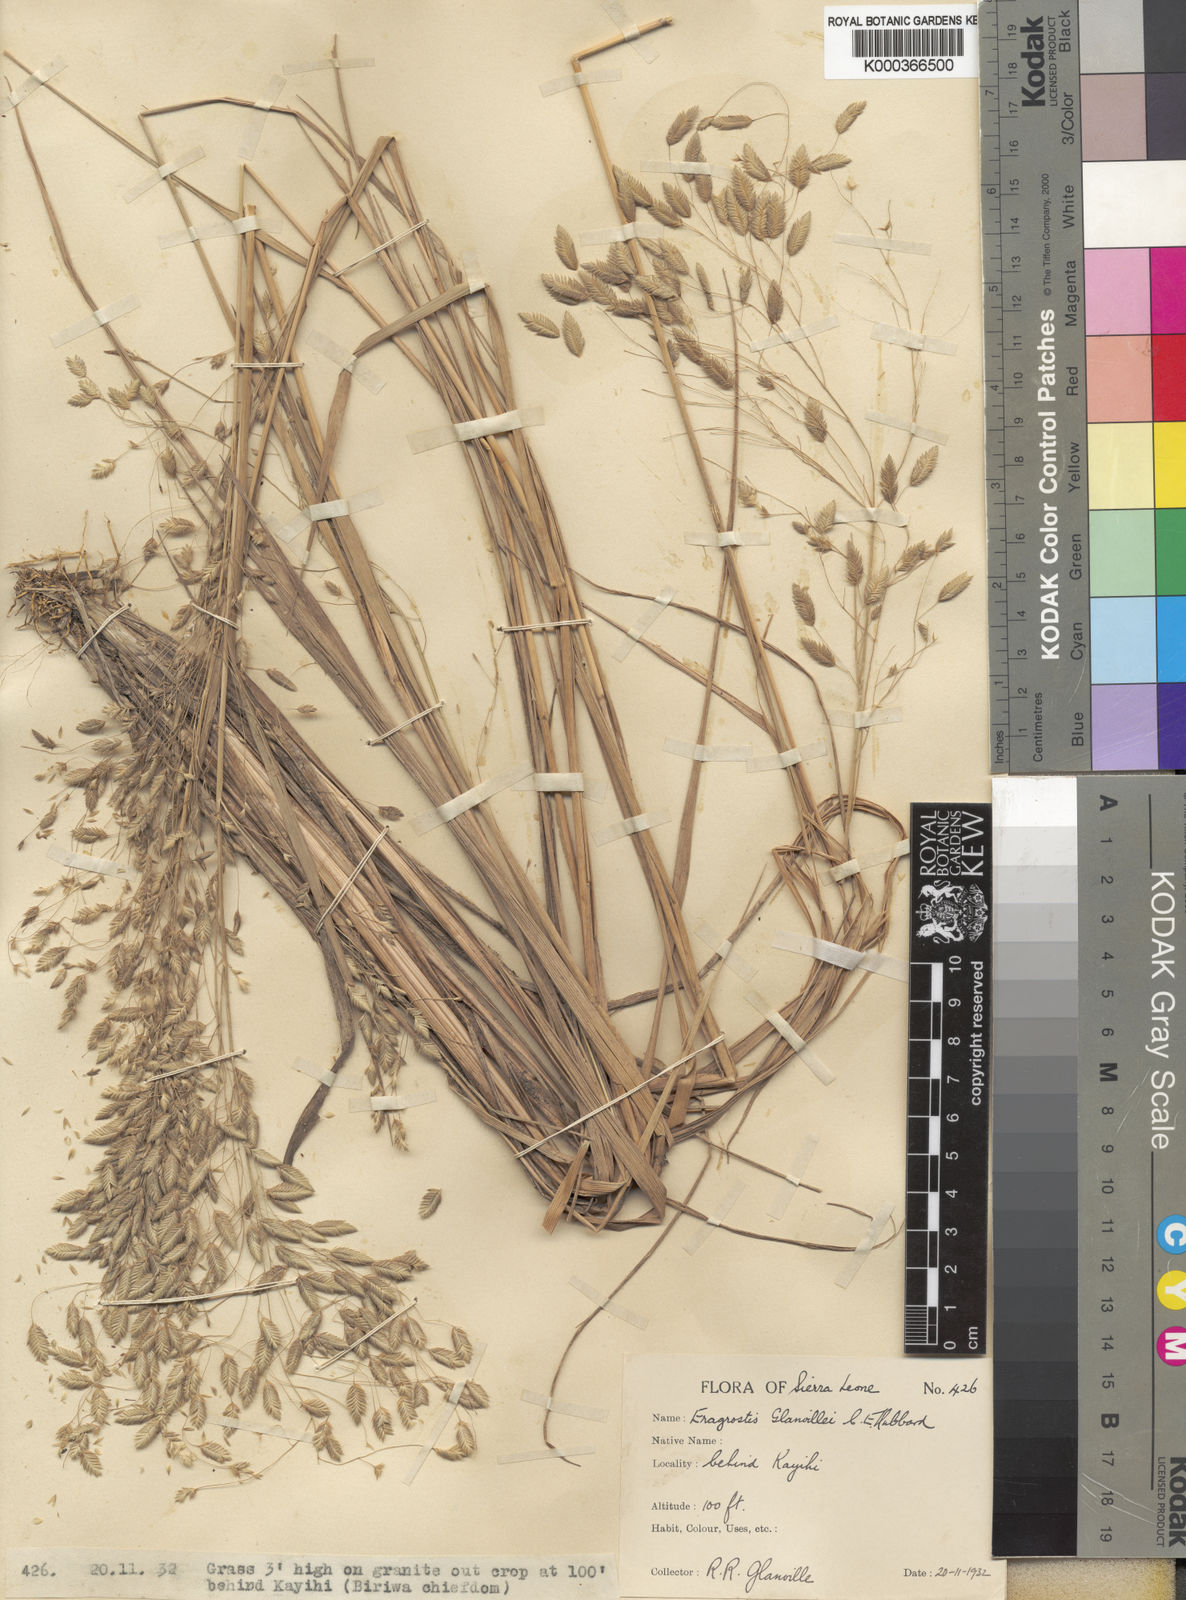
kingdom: Plantae
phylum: Tracheophyta
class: Liliopsida
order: Poales
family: Poaceae
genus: Eragrostis
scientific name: Eragrostis invalida
